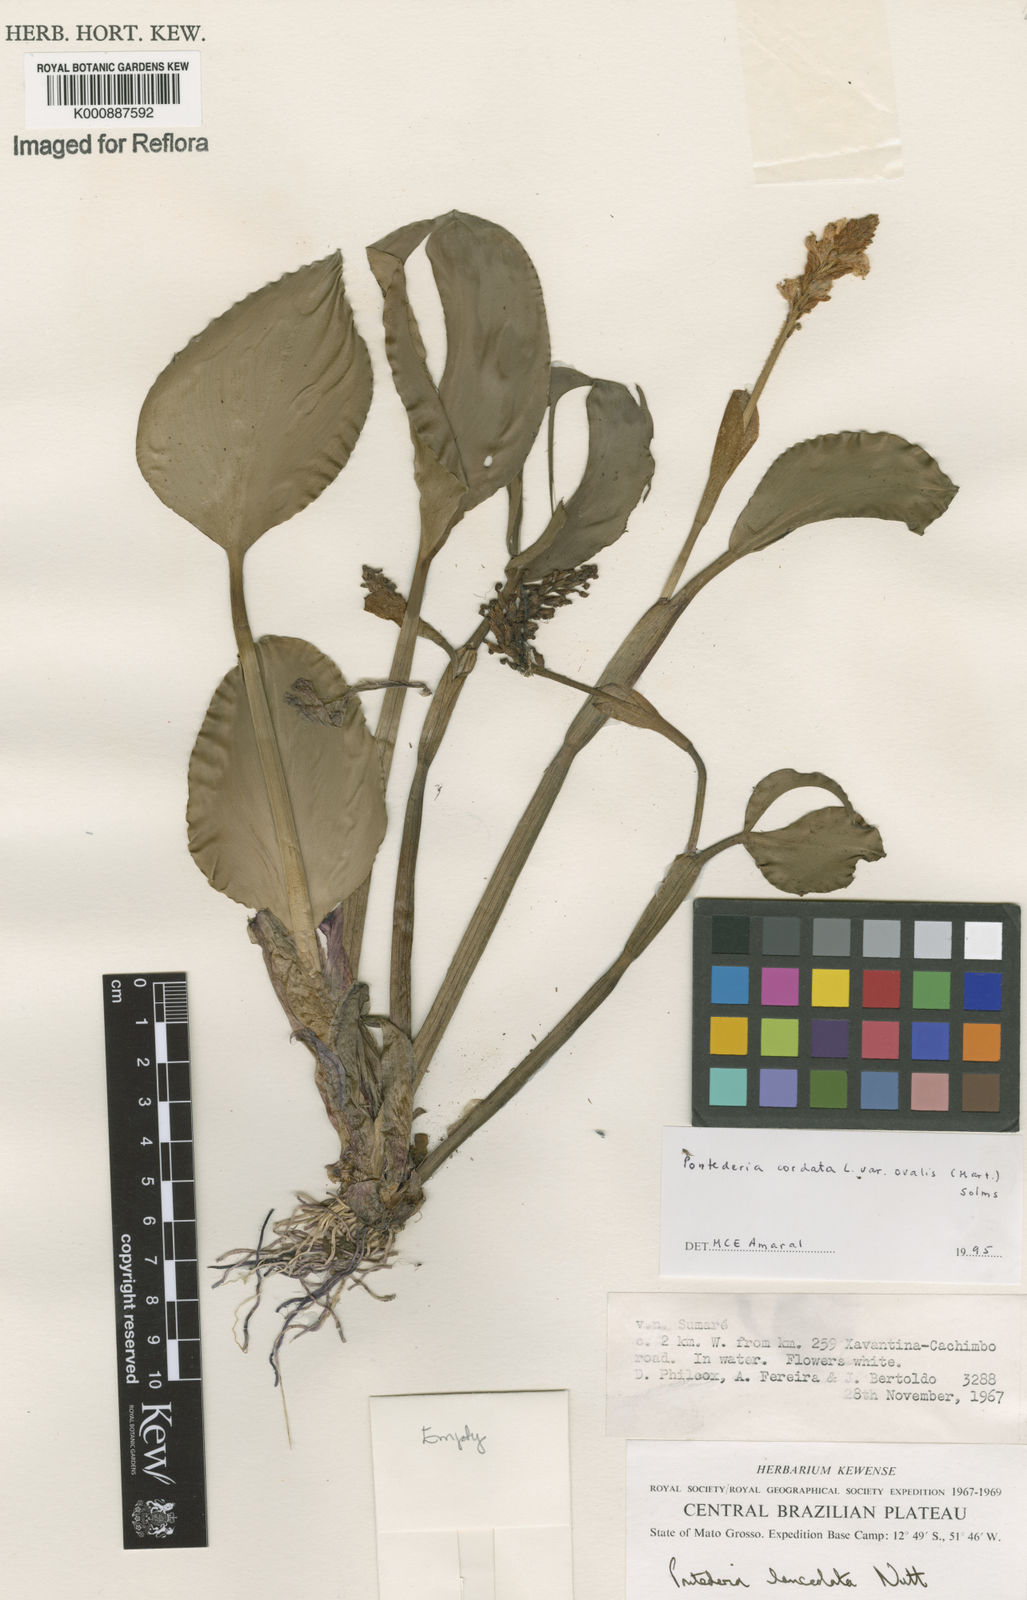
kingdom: Plantae
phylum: Tracheophyta
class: Liliopsida
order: Commelinales
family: Pontederiaceae
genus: Pontederia
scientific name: Pontederia cordata
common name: Pickerelweed
